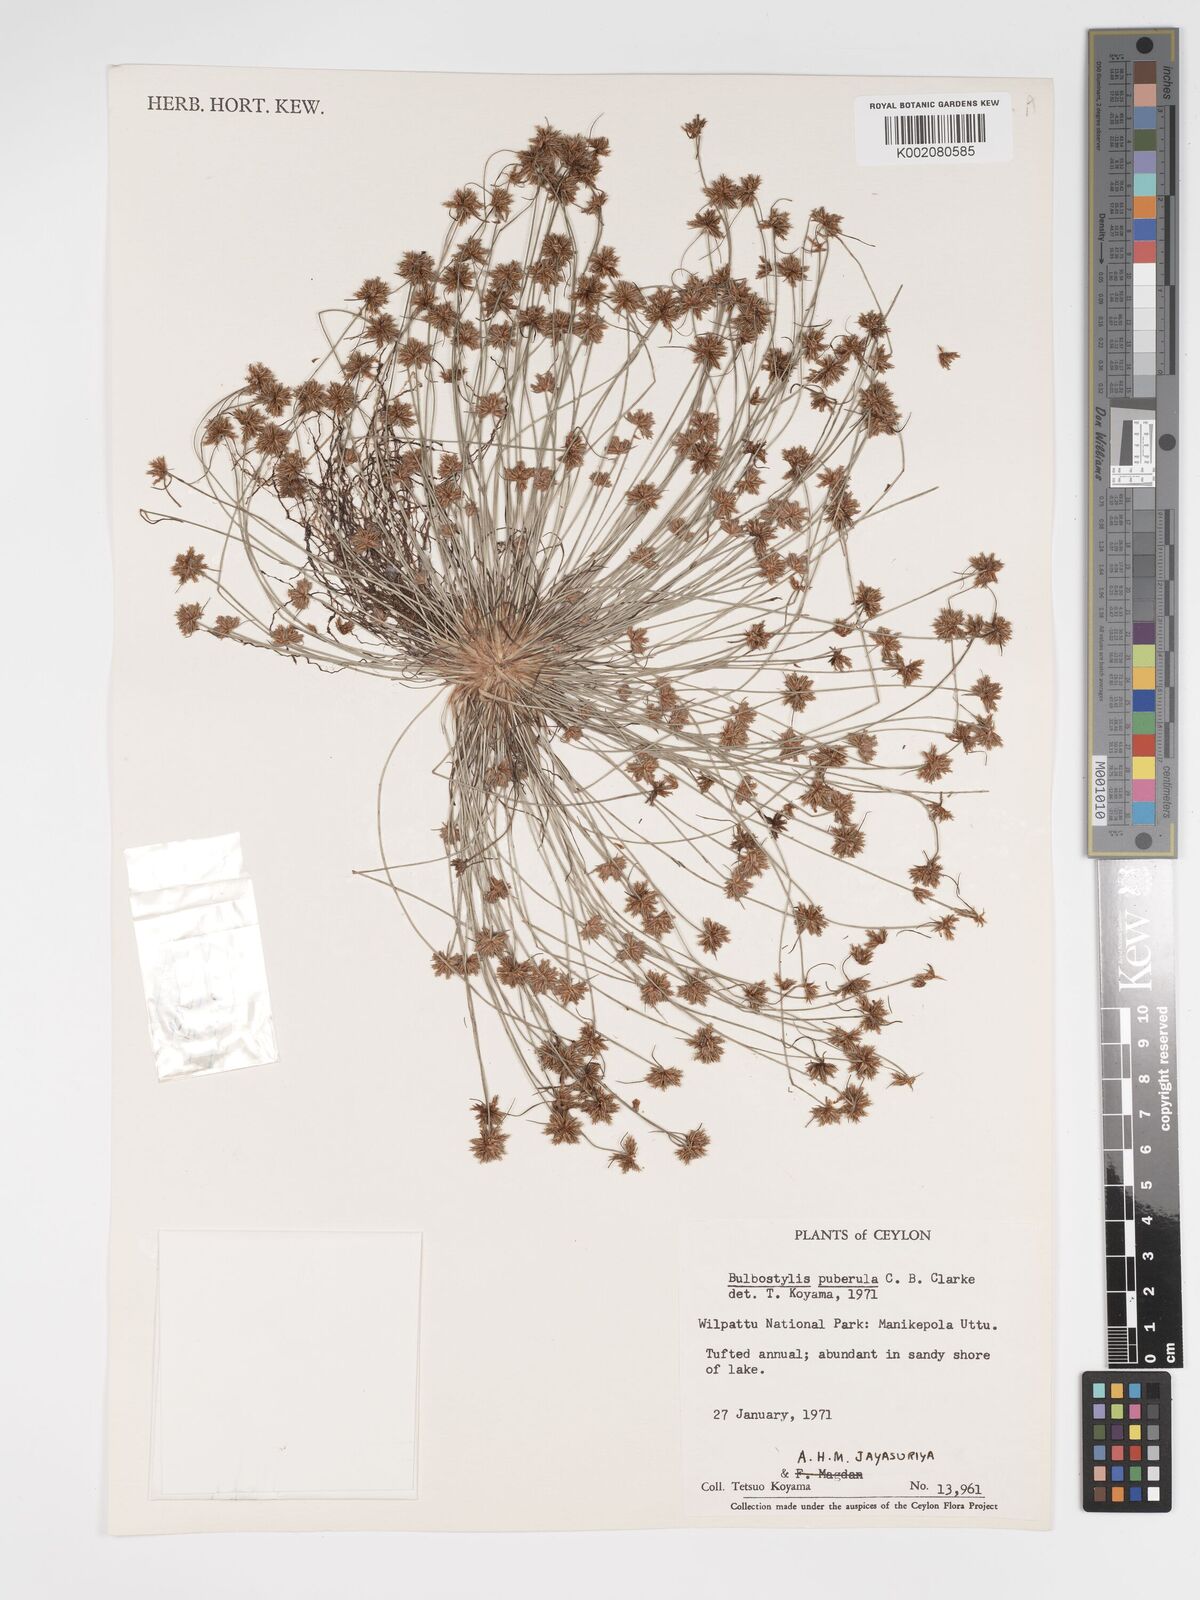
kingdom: Plantae
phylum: Tracheophyta
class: Magnoliopsida
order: Asterales
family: Asteraceae
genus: Bulbostylis
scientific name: Bulbostylis
